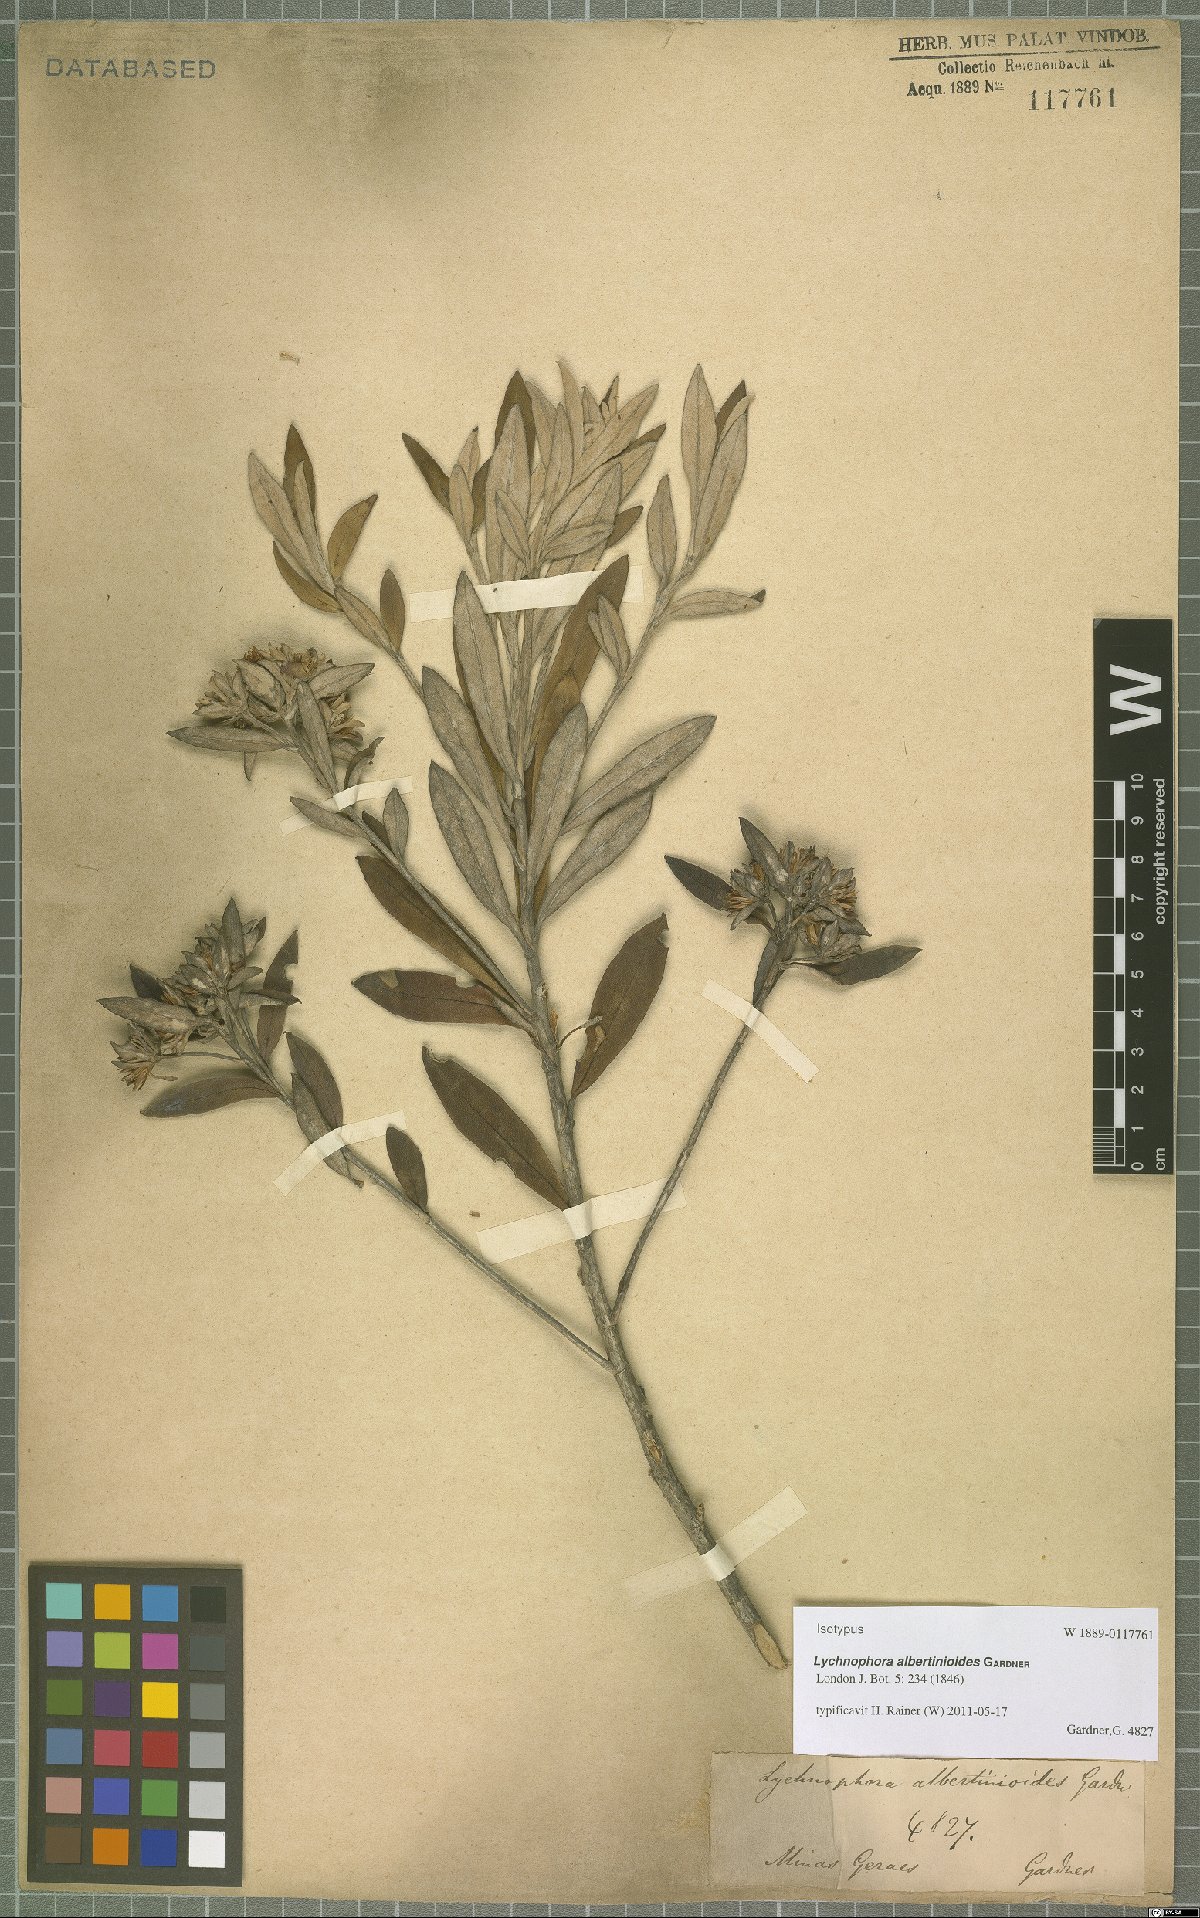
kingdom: Plantae
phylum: Tracheophyta
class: Magnoliopsida
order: Asterales
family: Asteraceae
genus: Lychnophora
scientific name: Lychnophora albertinioides
